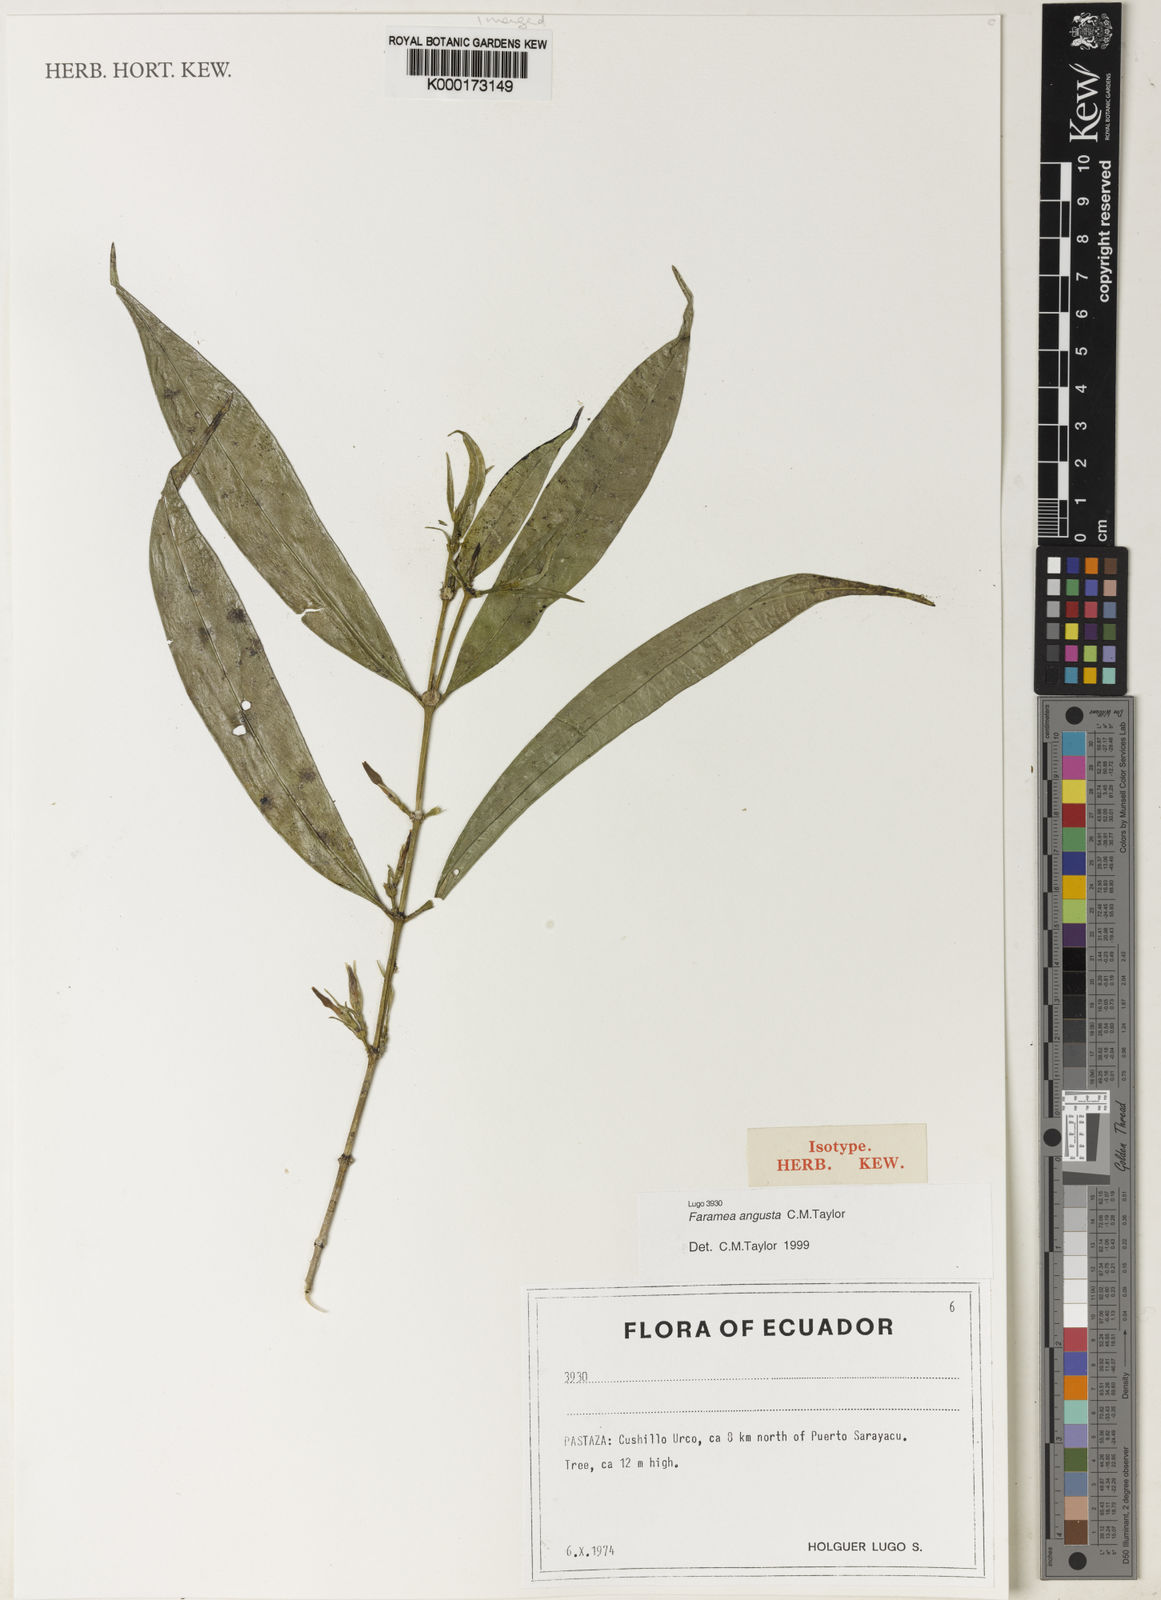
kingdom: Plantae
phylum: Tracheophyta
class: Magnoliopsida
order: Gentianales
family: Rubiaceae
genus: Faramea
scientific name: Faramea angusta
